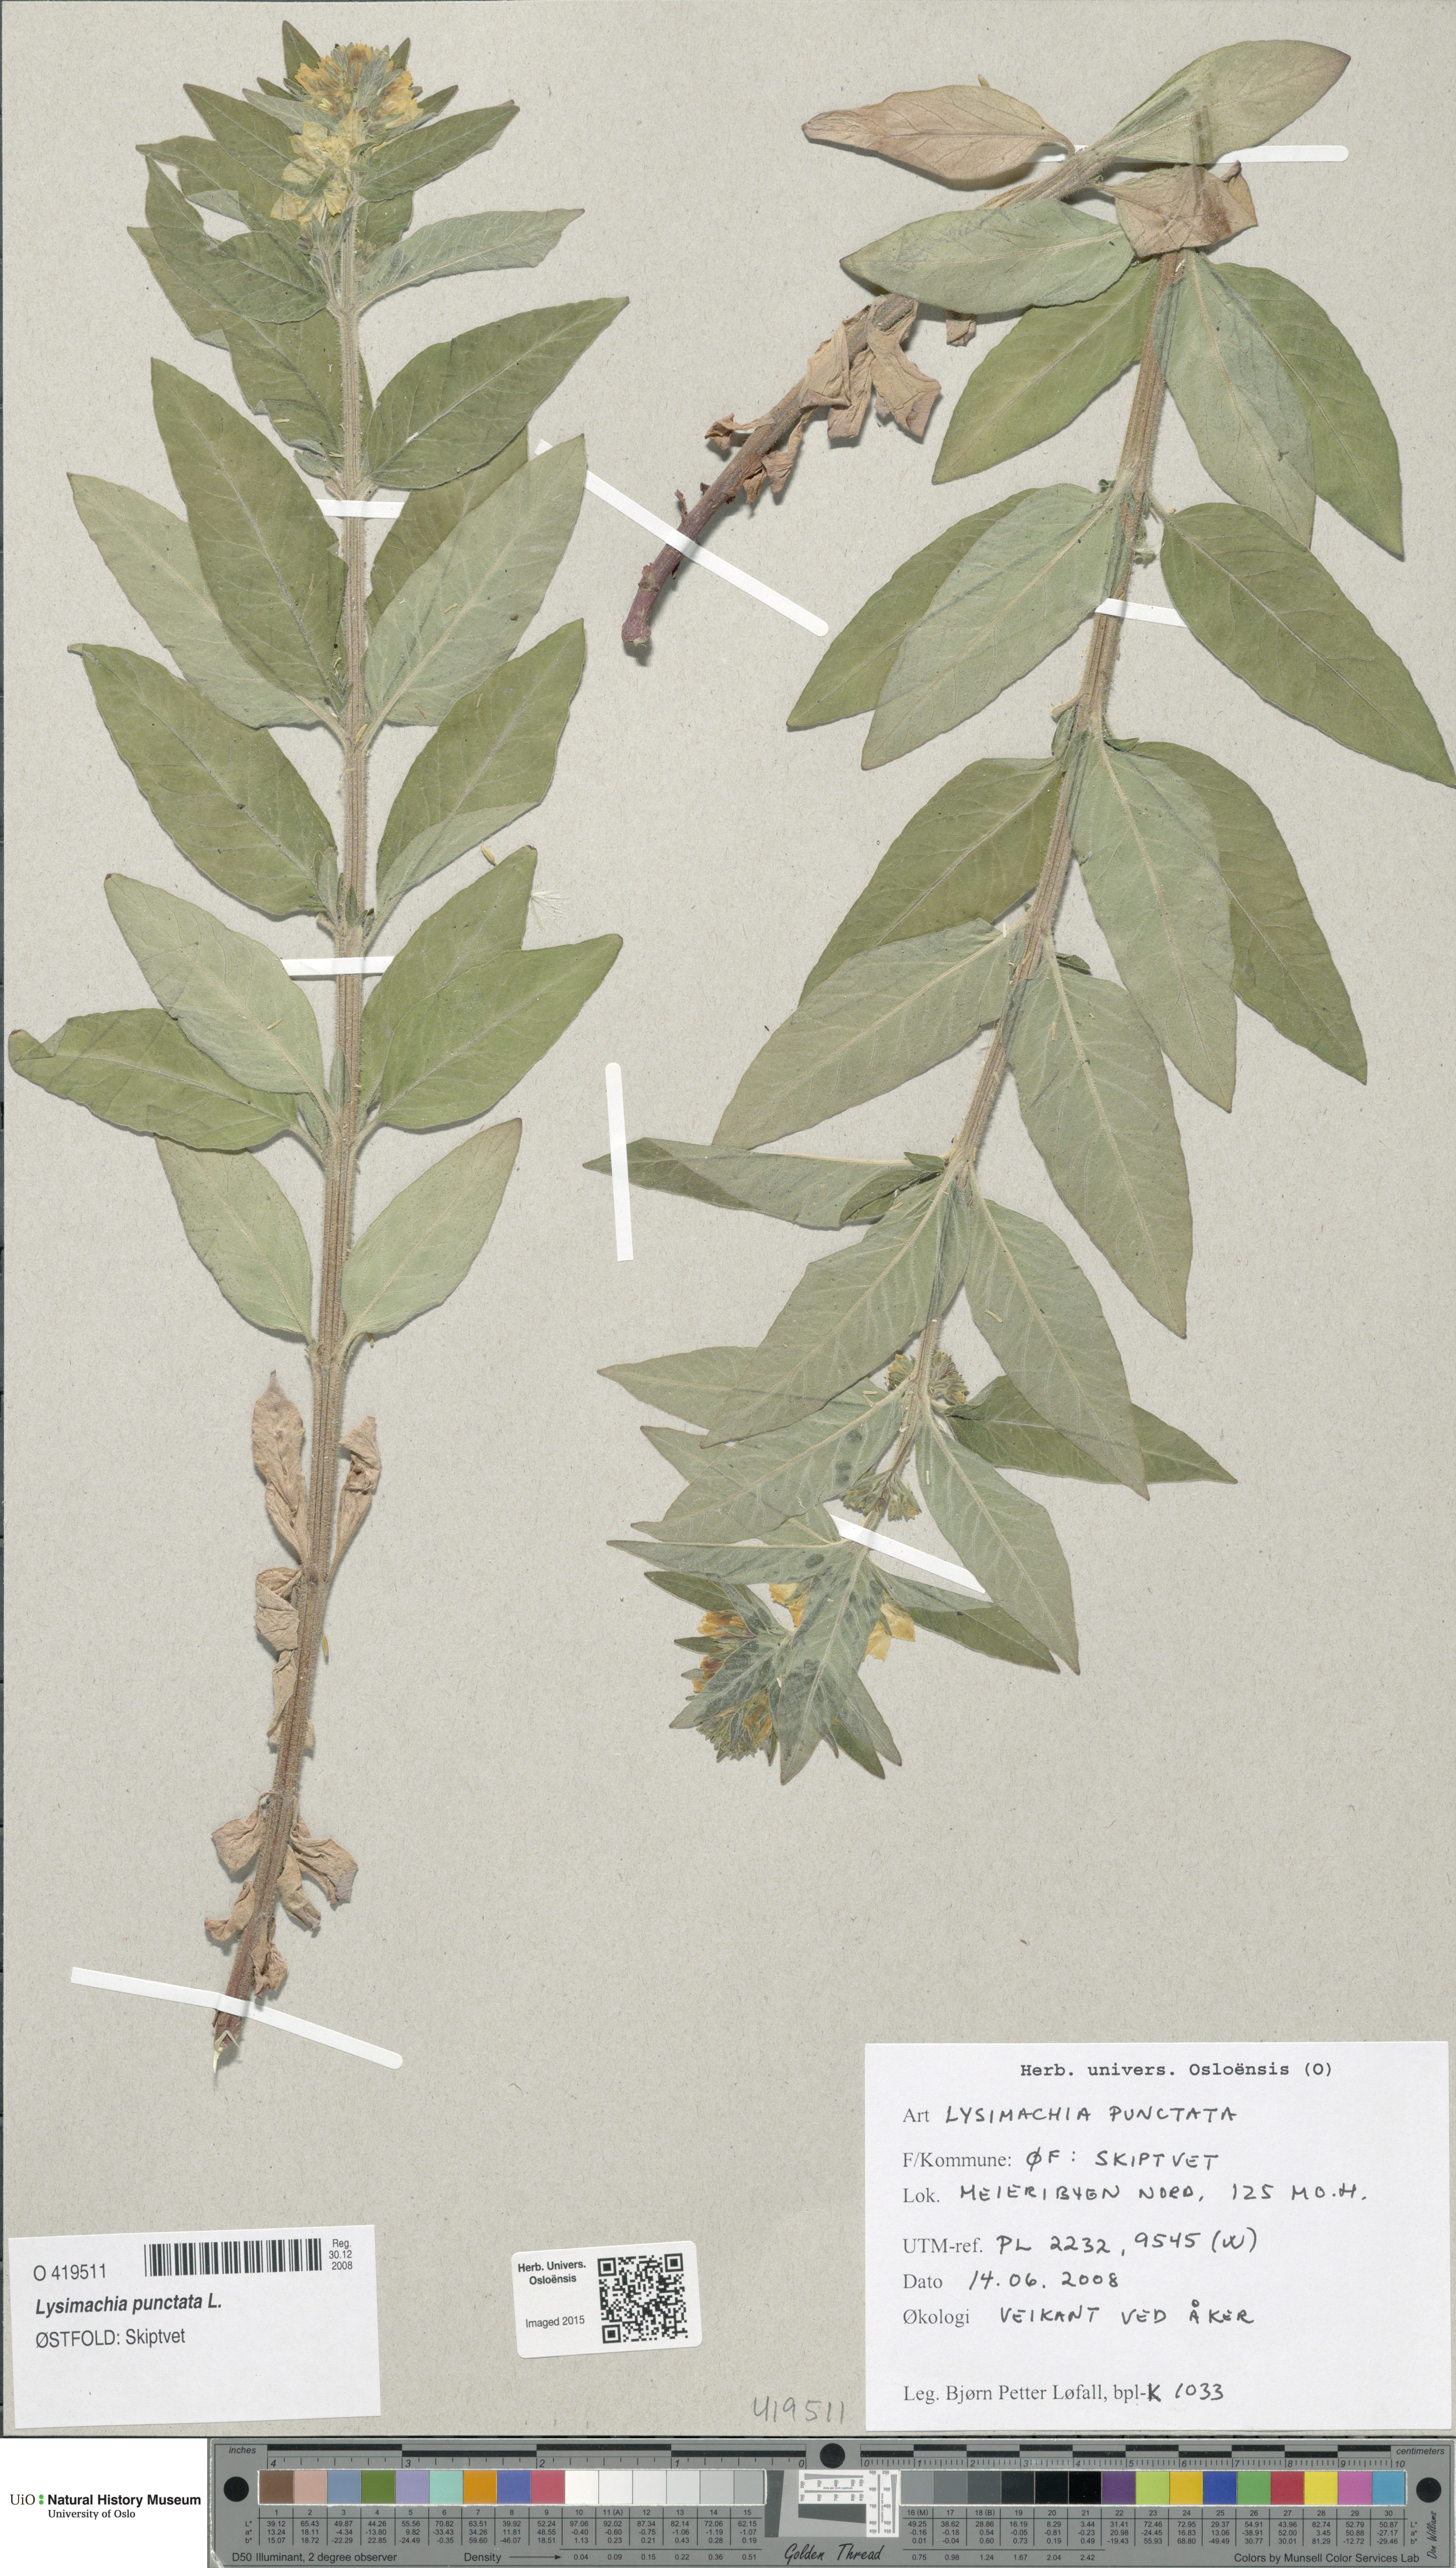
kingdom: Plantae
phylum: Tracheophyta
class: Magnoliopsida
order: Ericales
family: Primulaceae
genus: Lysimachia
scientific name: Lysimachia punctata
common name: Dotted loosestrife
